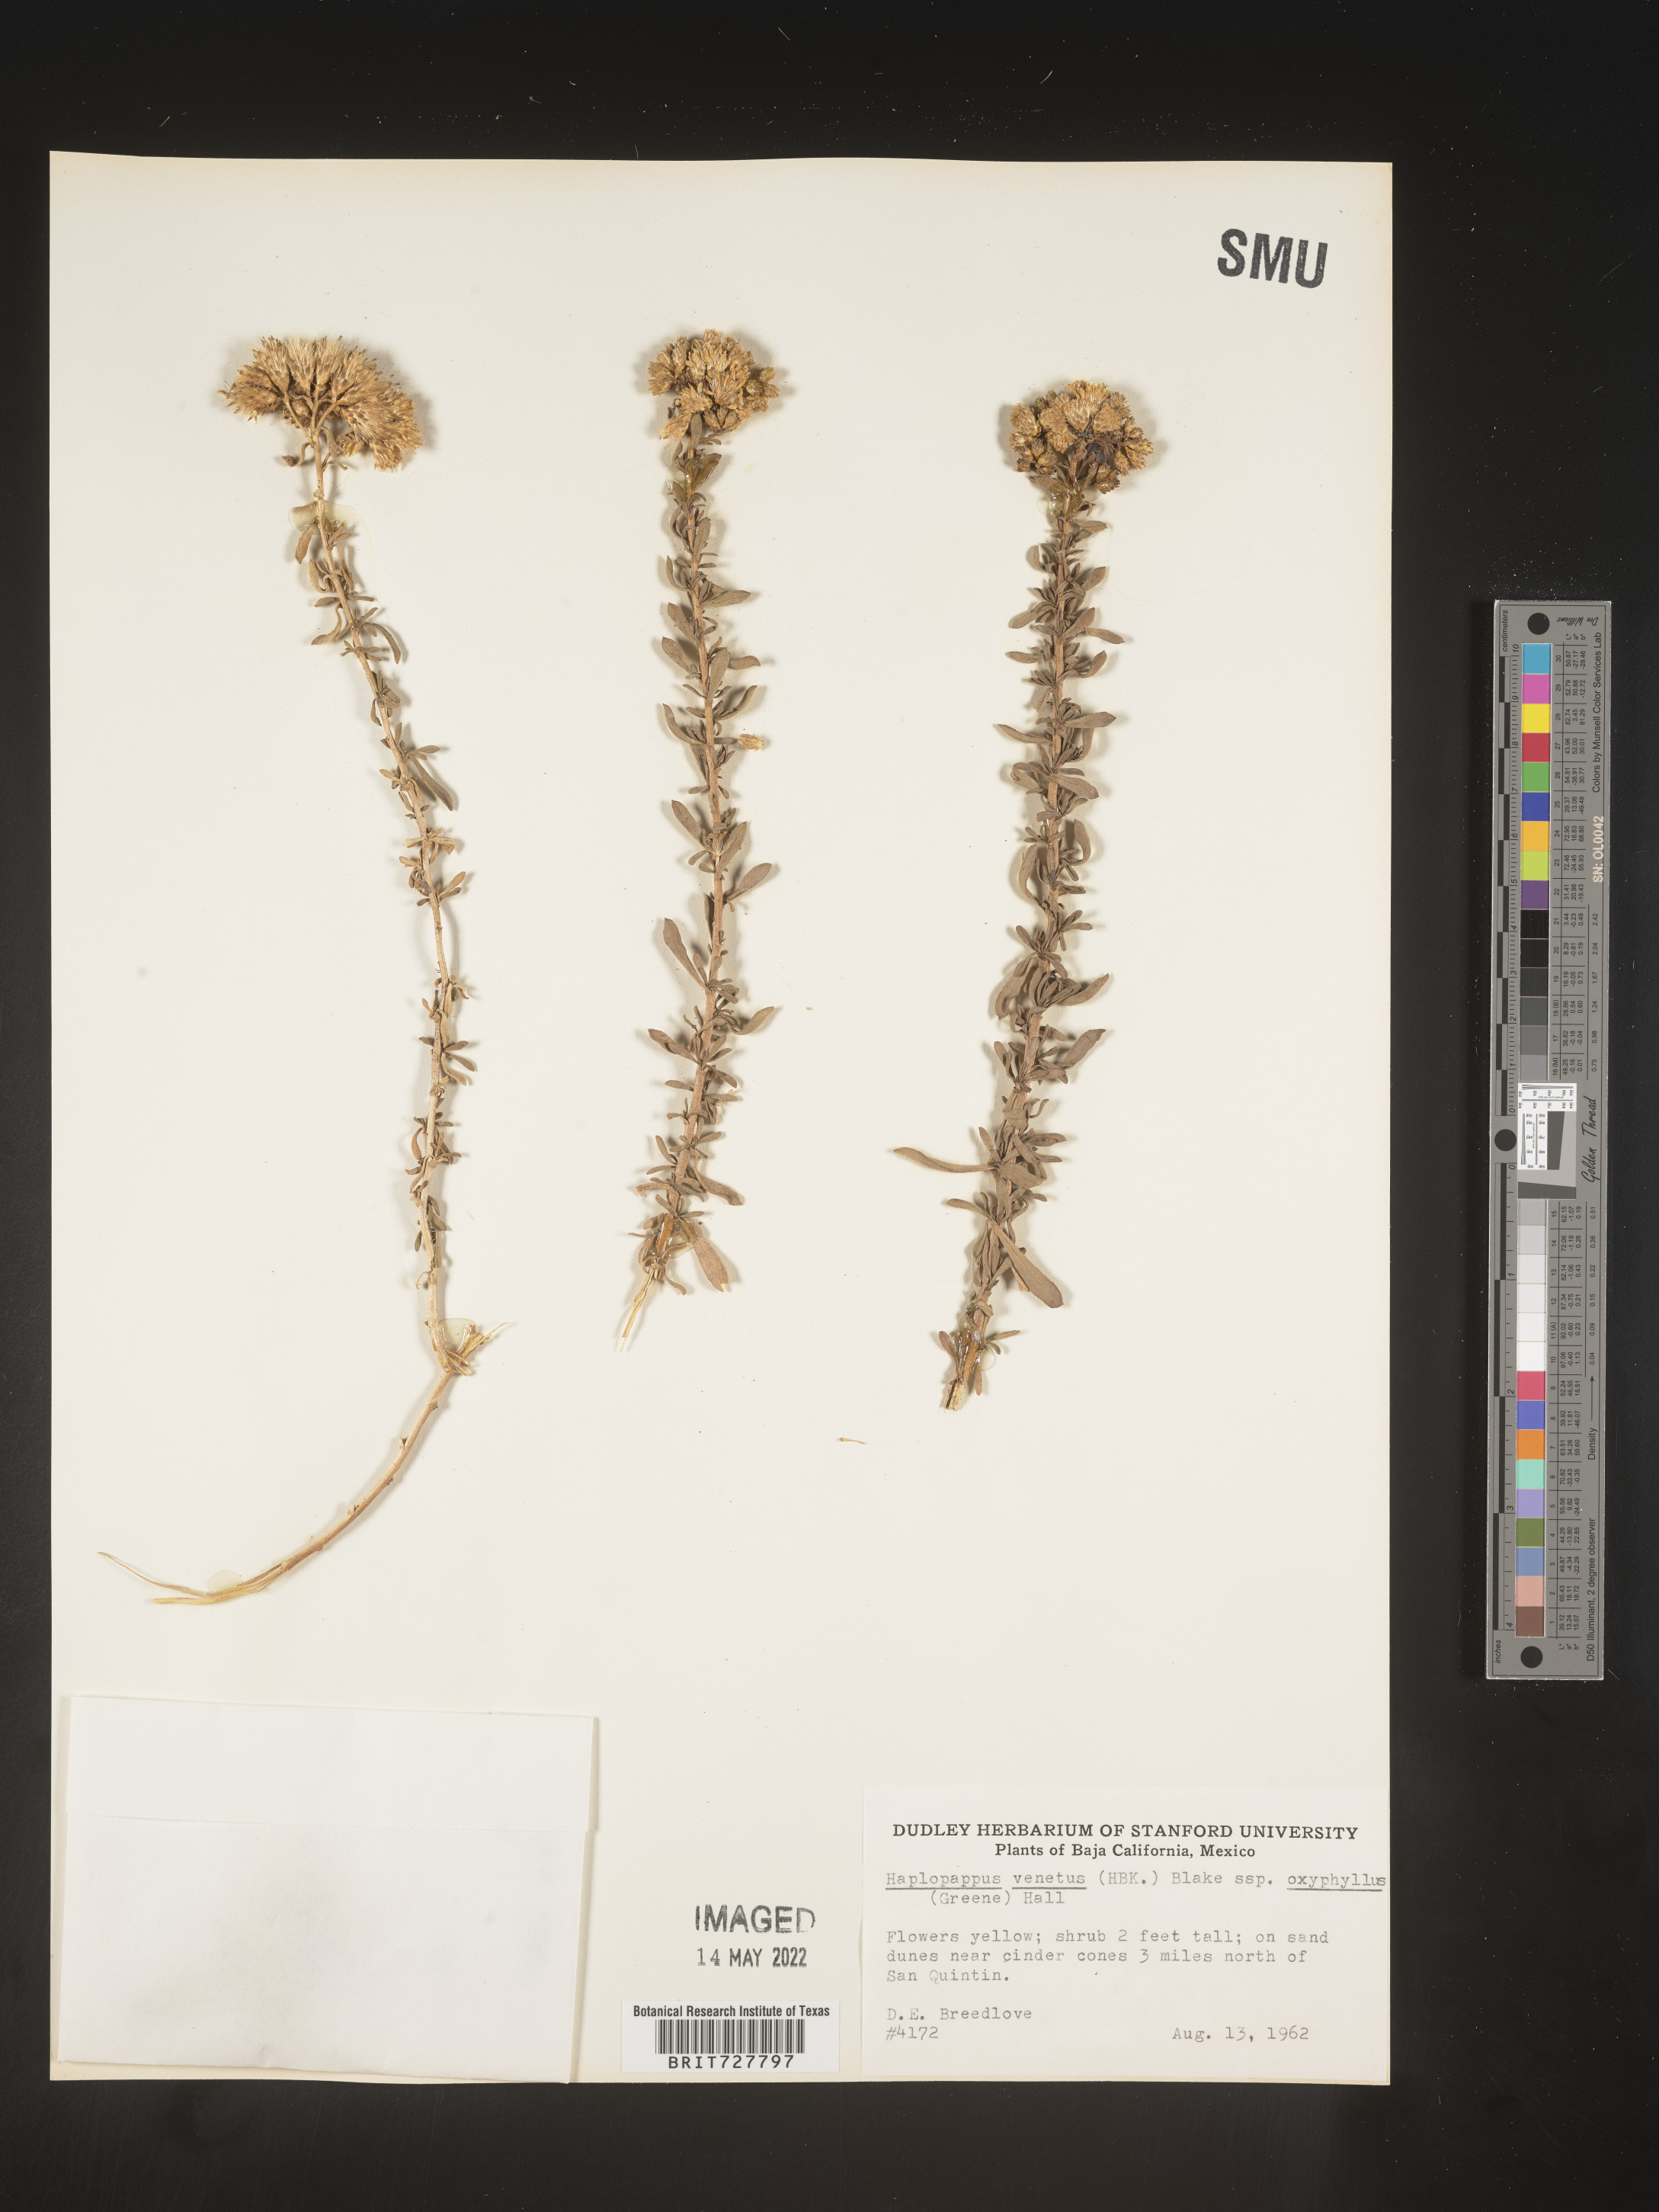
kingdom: Plantae
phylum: Tracheophyta
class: Magnoliopsida
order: Asterales
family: Asteraceae
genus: Isocoma
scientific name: Isocoma
